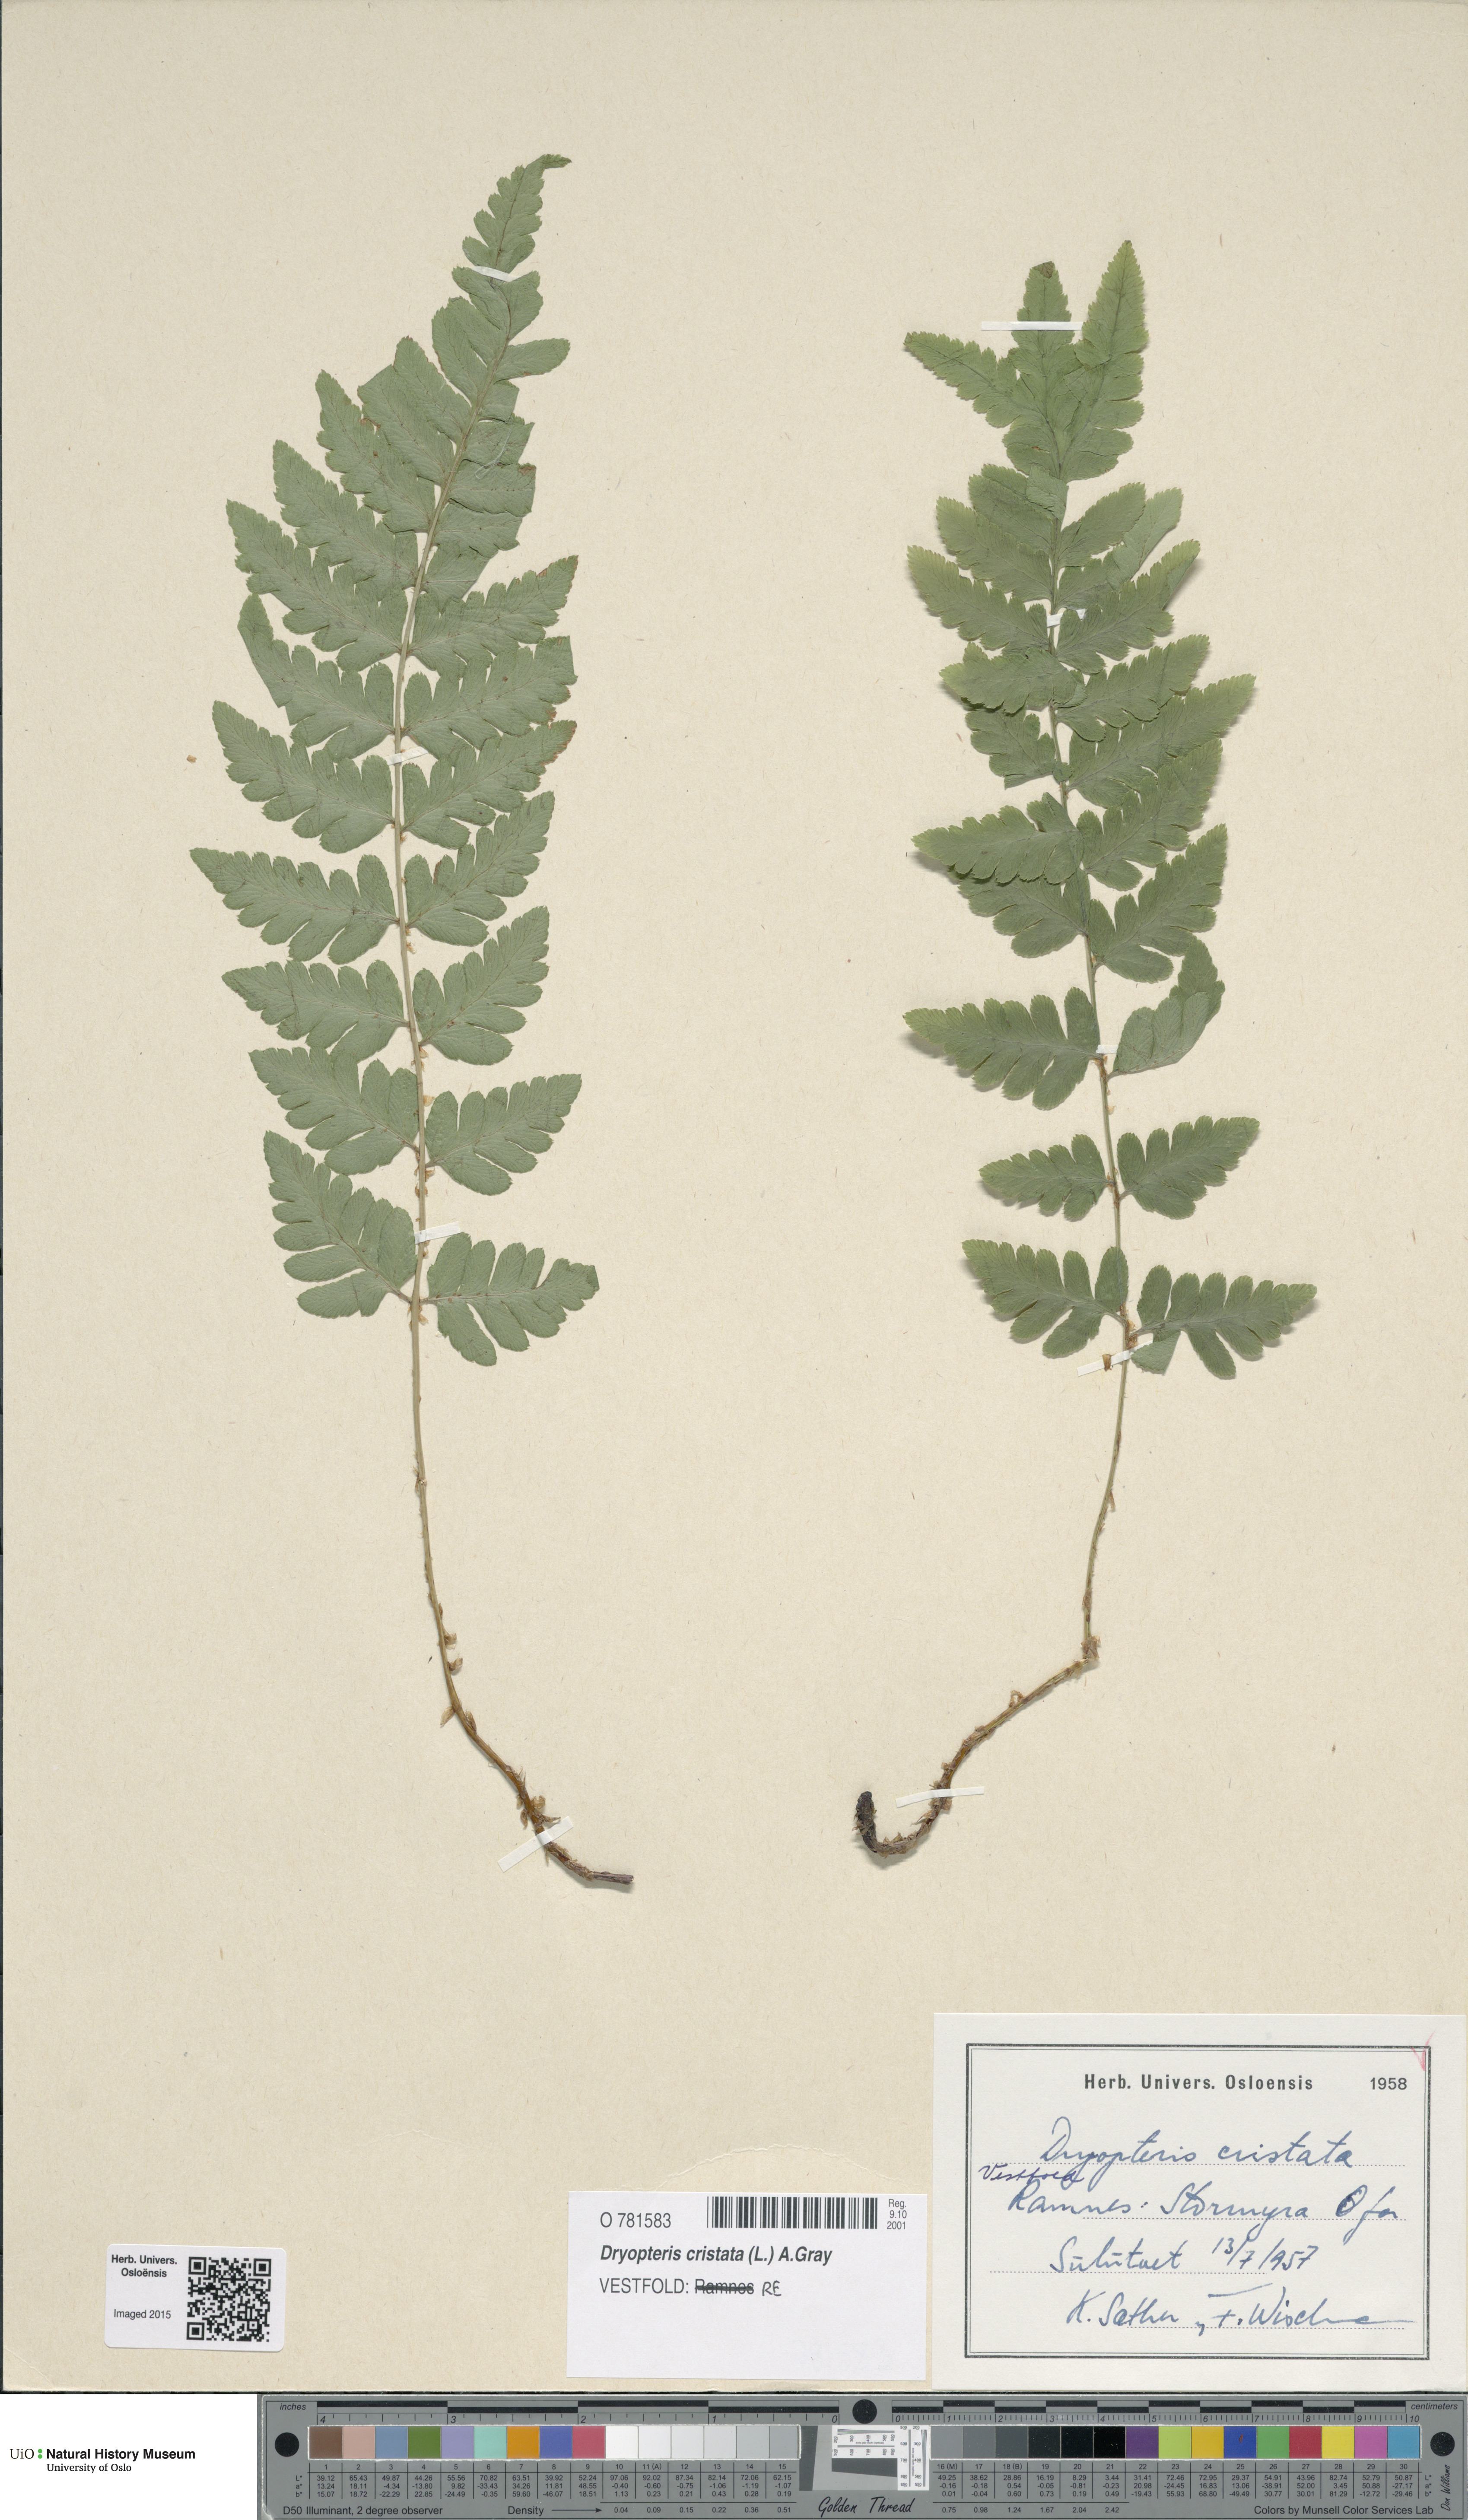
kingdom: Plantae
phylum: Tracheophyta
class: Polypodiopsida
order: Polypodiales
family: Dryopteridaceae
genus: Dryopteris
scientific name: Dryopteris cristata
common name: Crested wood fern
